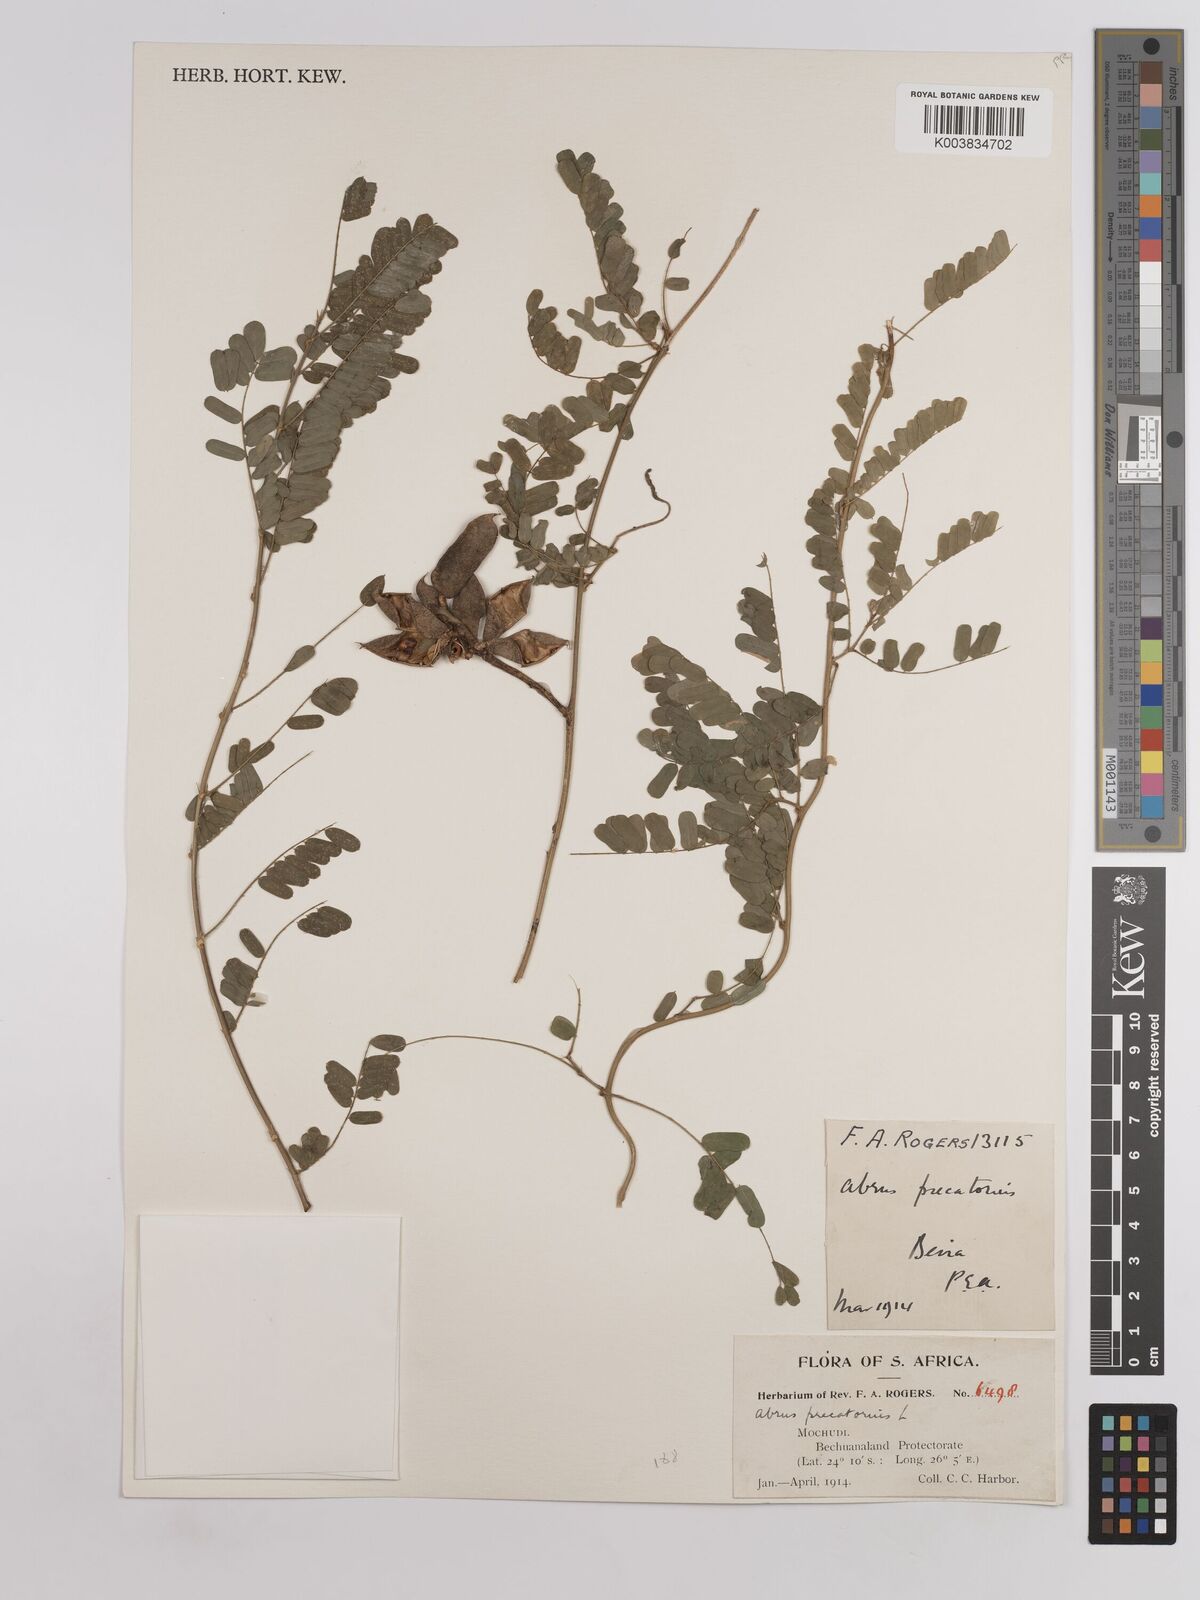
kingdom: Plantae
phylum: Tracheophyta
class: Magnoliopsida
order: Fabales
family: Fabaceae
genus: Abrus
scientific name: Abrus precatorius
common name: Rosarypea
